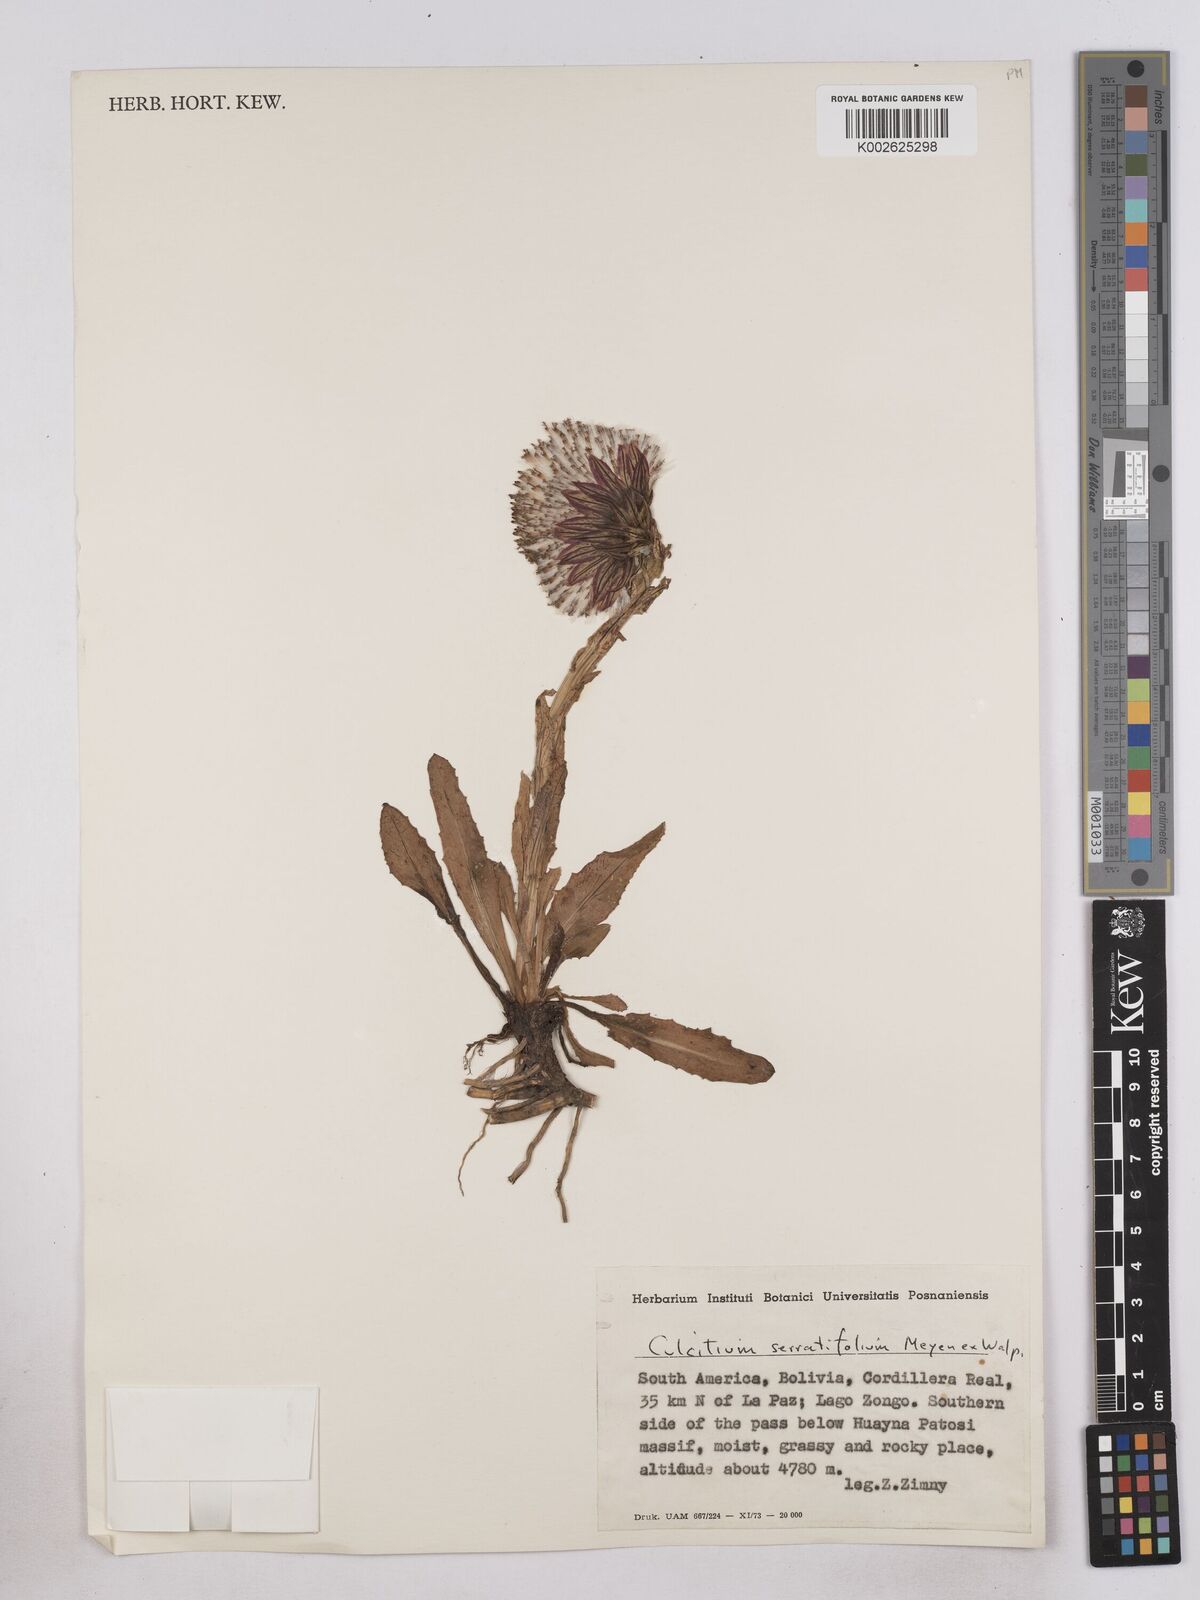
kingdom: Plantae
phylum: Tracheophyta
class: Magnoliopsida
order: Asterales
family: Asteraceae
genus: Senecio
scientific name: Senecio serratifolius
